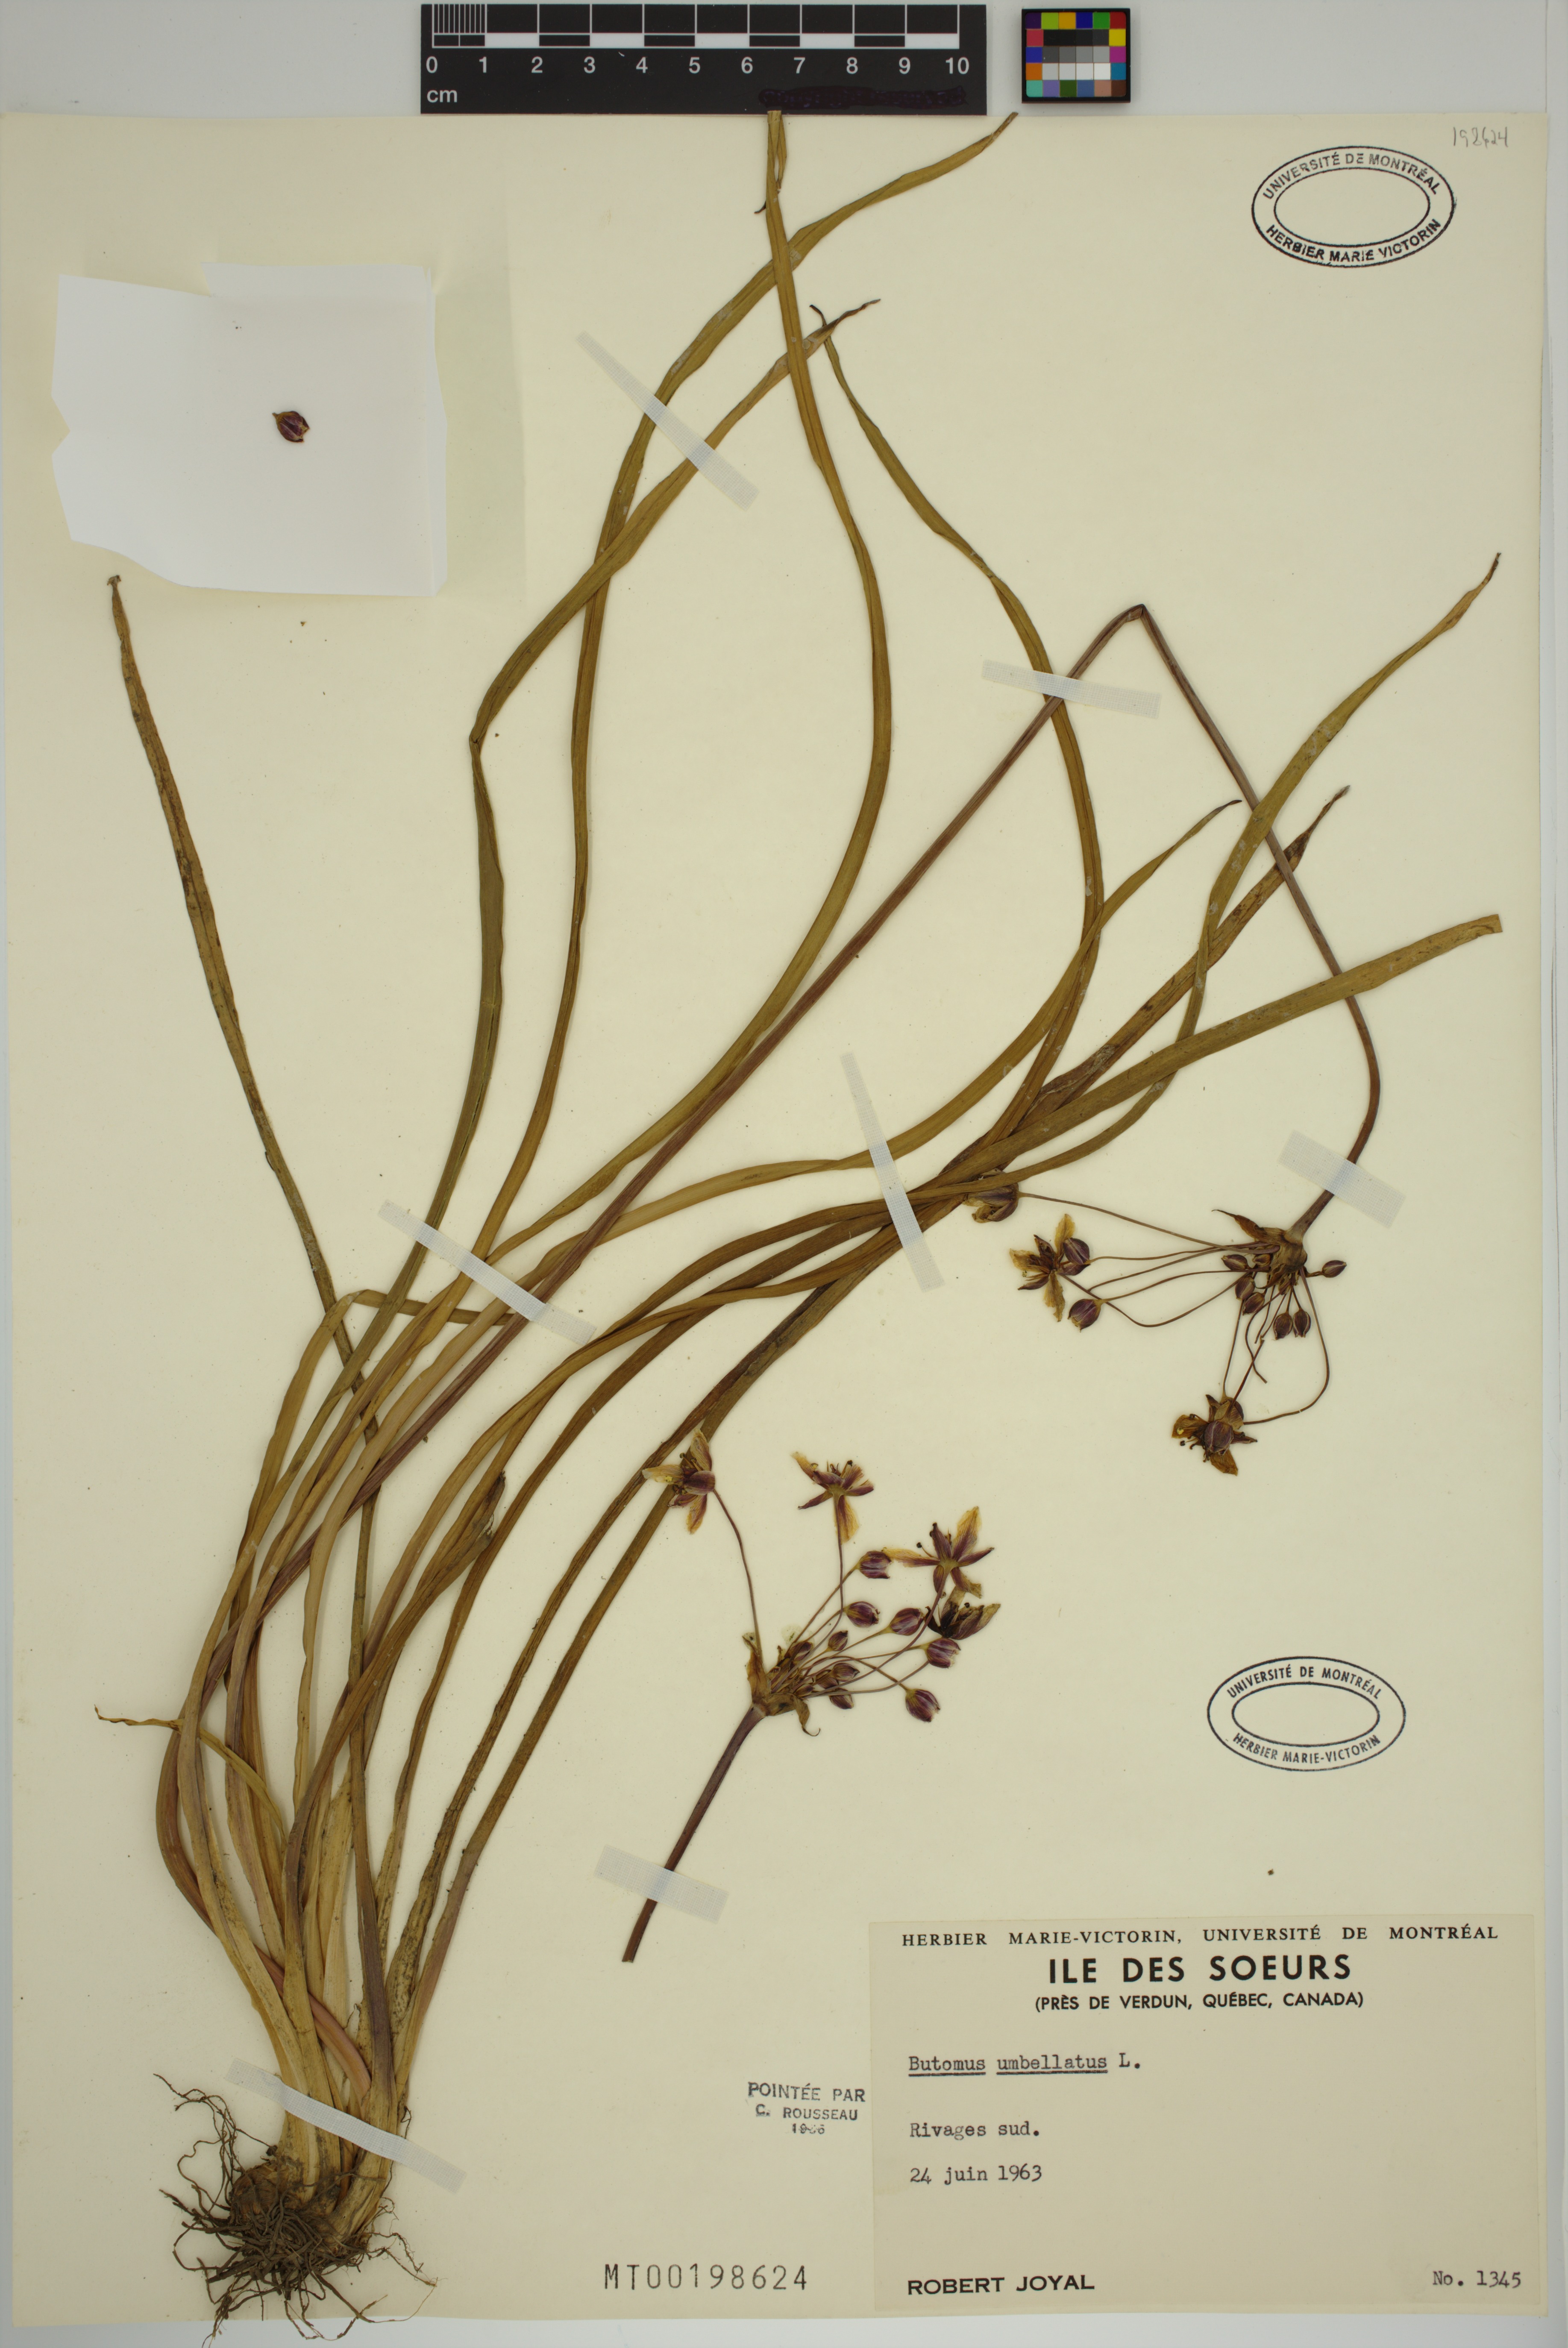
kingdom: Plantae
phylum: Tracheophyta
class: Liliopsida
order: Alismatales
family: Butomaceae
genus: Butomus
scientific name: Butomus umbellatus
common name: Flowering-rush
